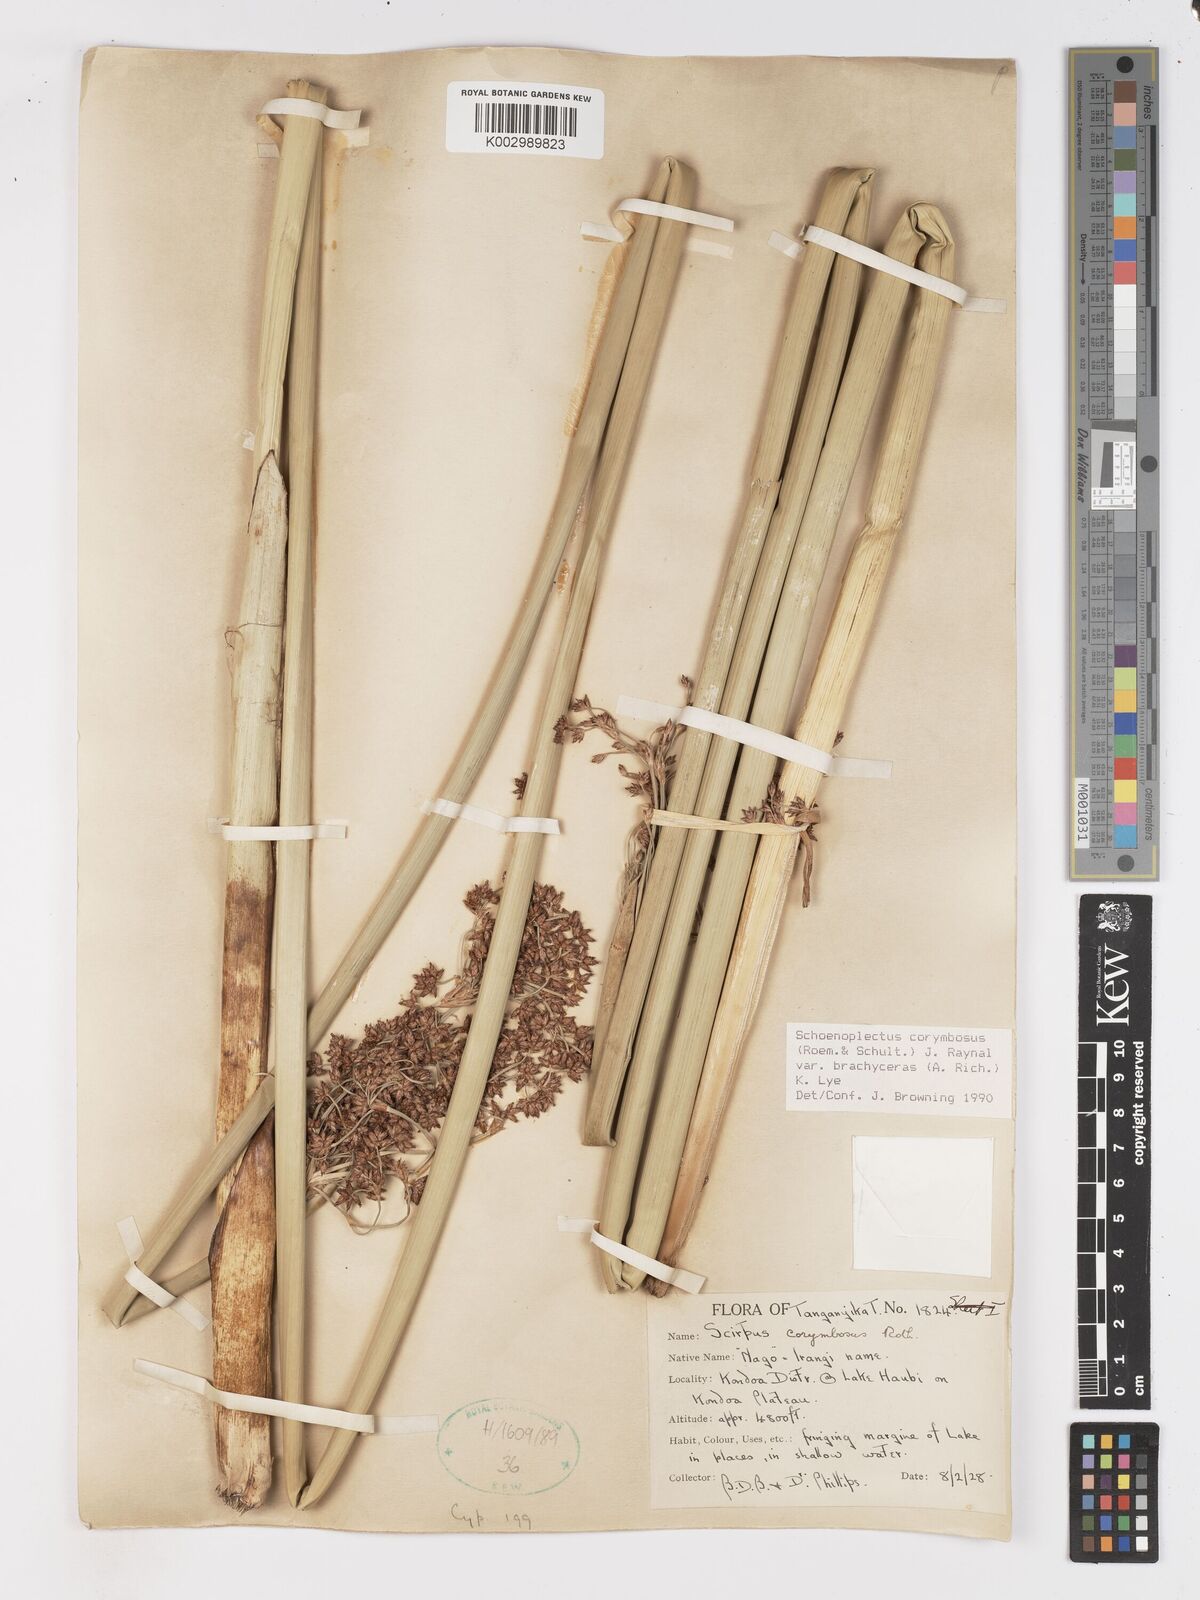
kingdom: Plantae
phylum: Tracheophyta
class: Liliopsida
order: Poales
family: Cyperaceae
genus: Schoenoplectiella
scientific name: Schoenoplectiella brachyceras
